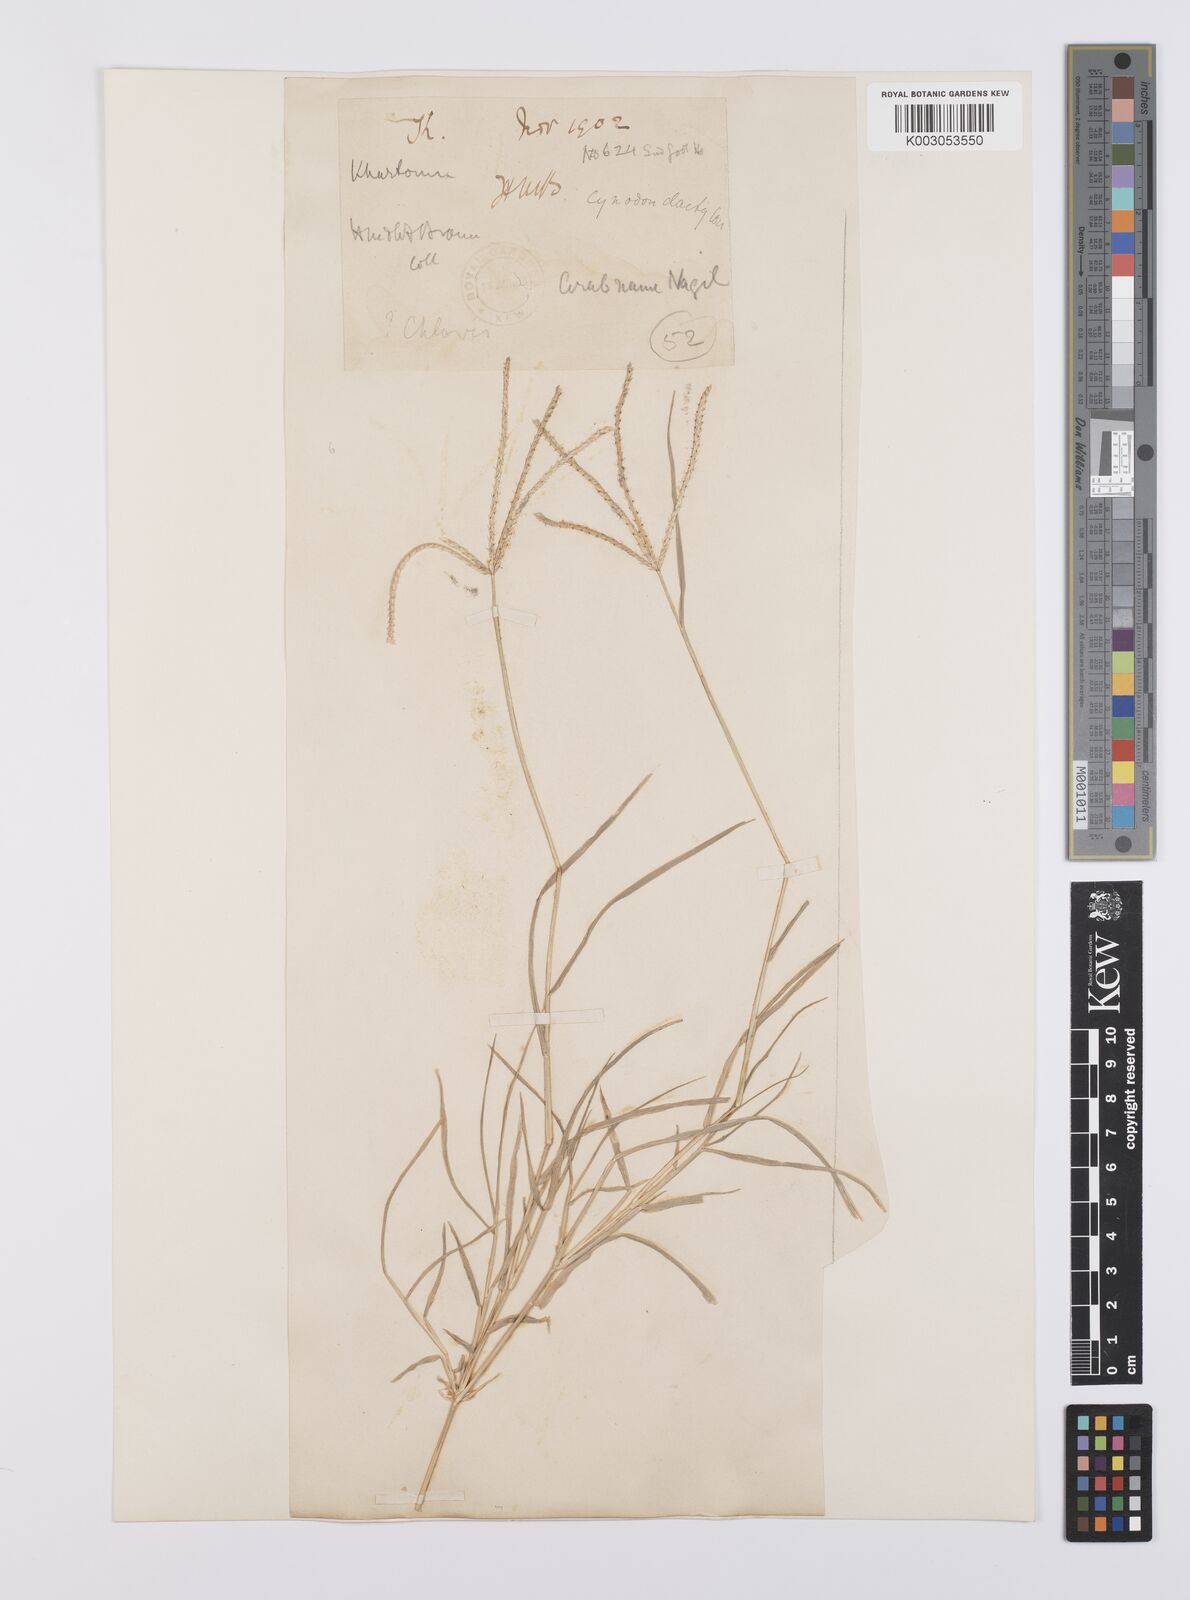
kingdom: Plantae
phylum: Tracheophyta
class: Liliopsida
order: Poales
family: Poaceae
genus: Cynodon
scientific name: Cynodon dactylon
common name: Bermuda grass
